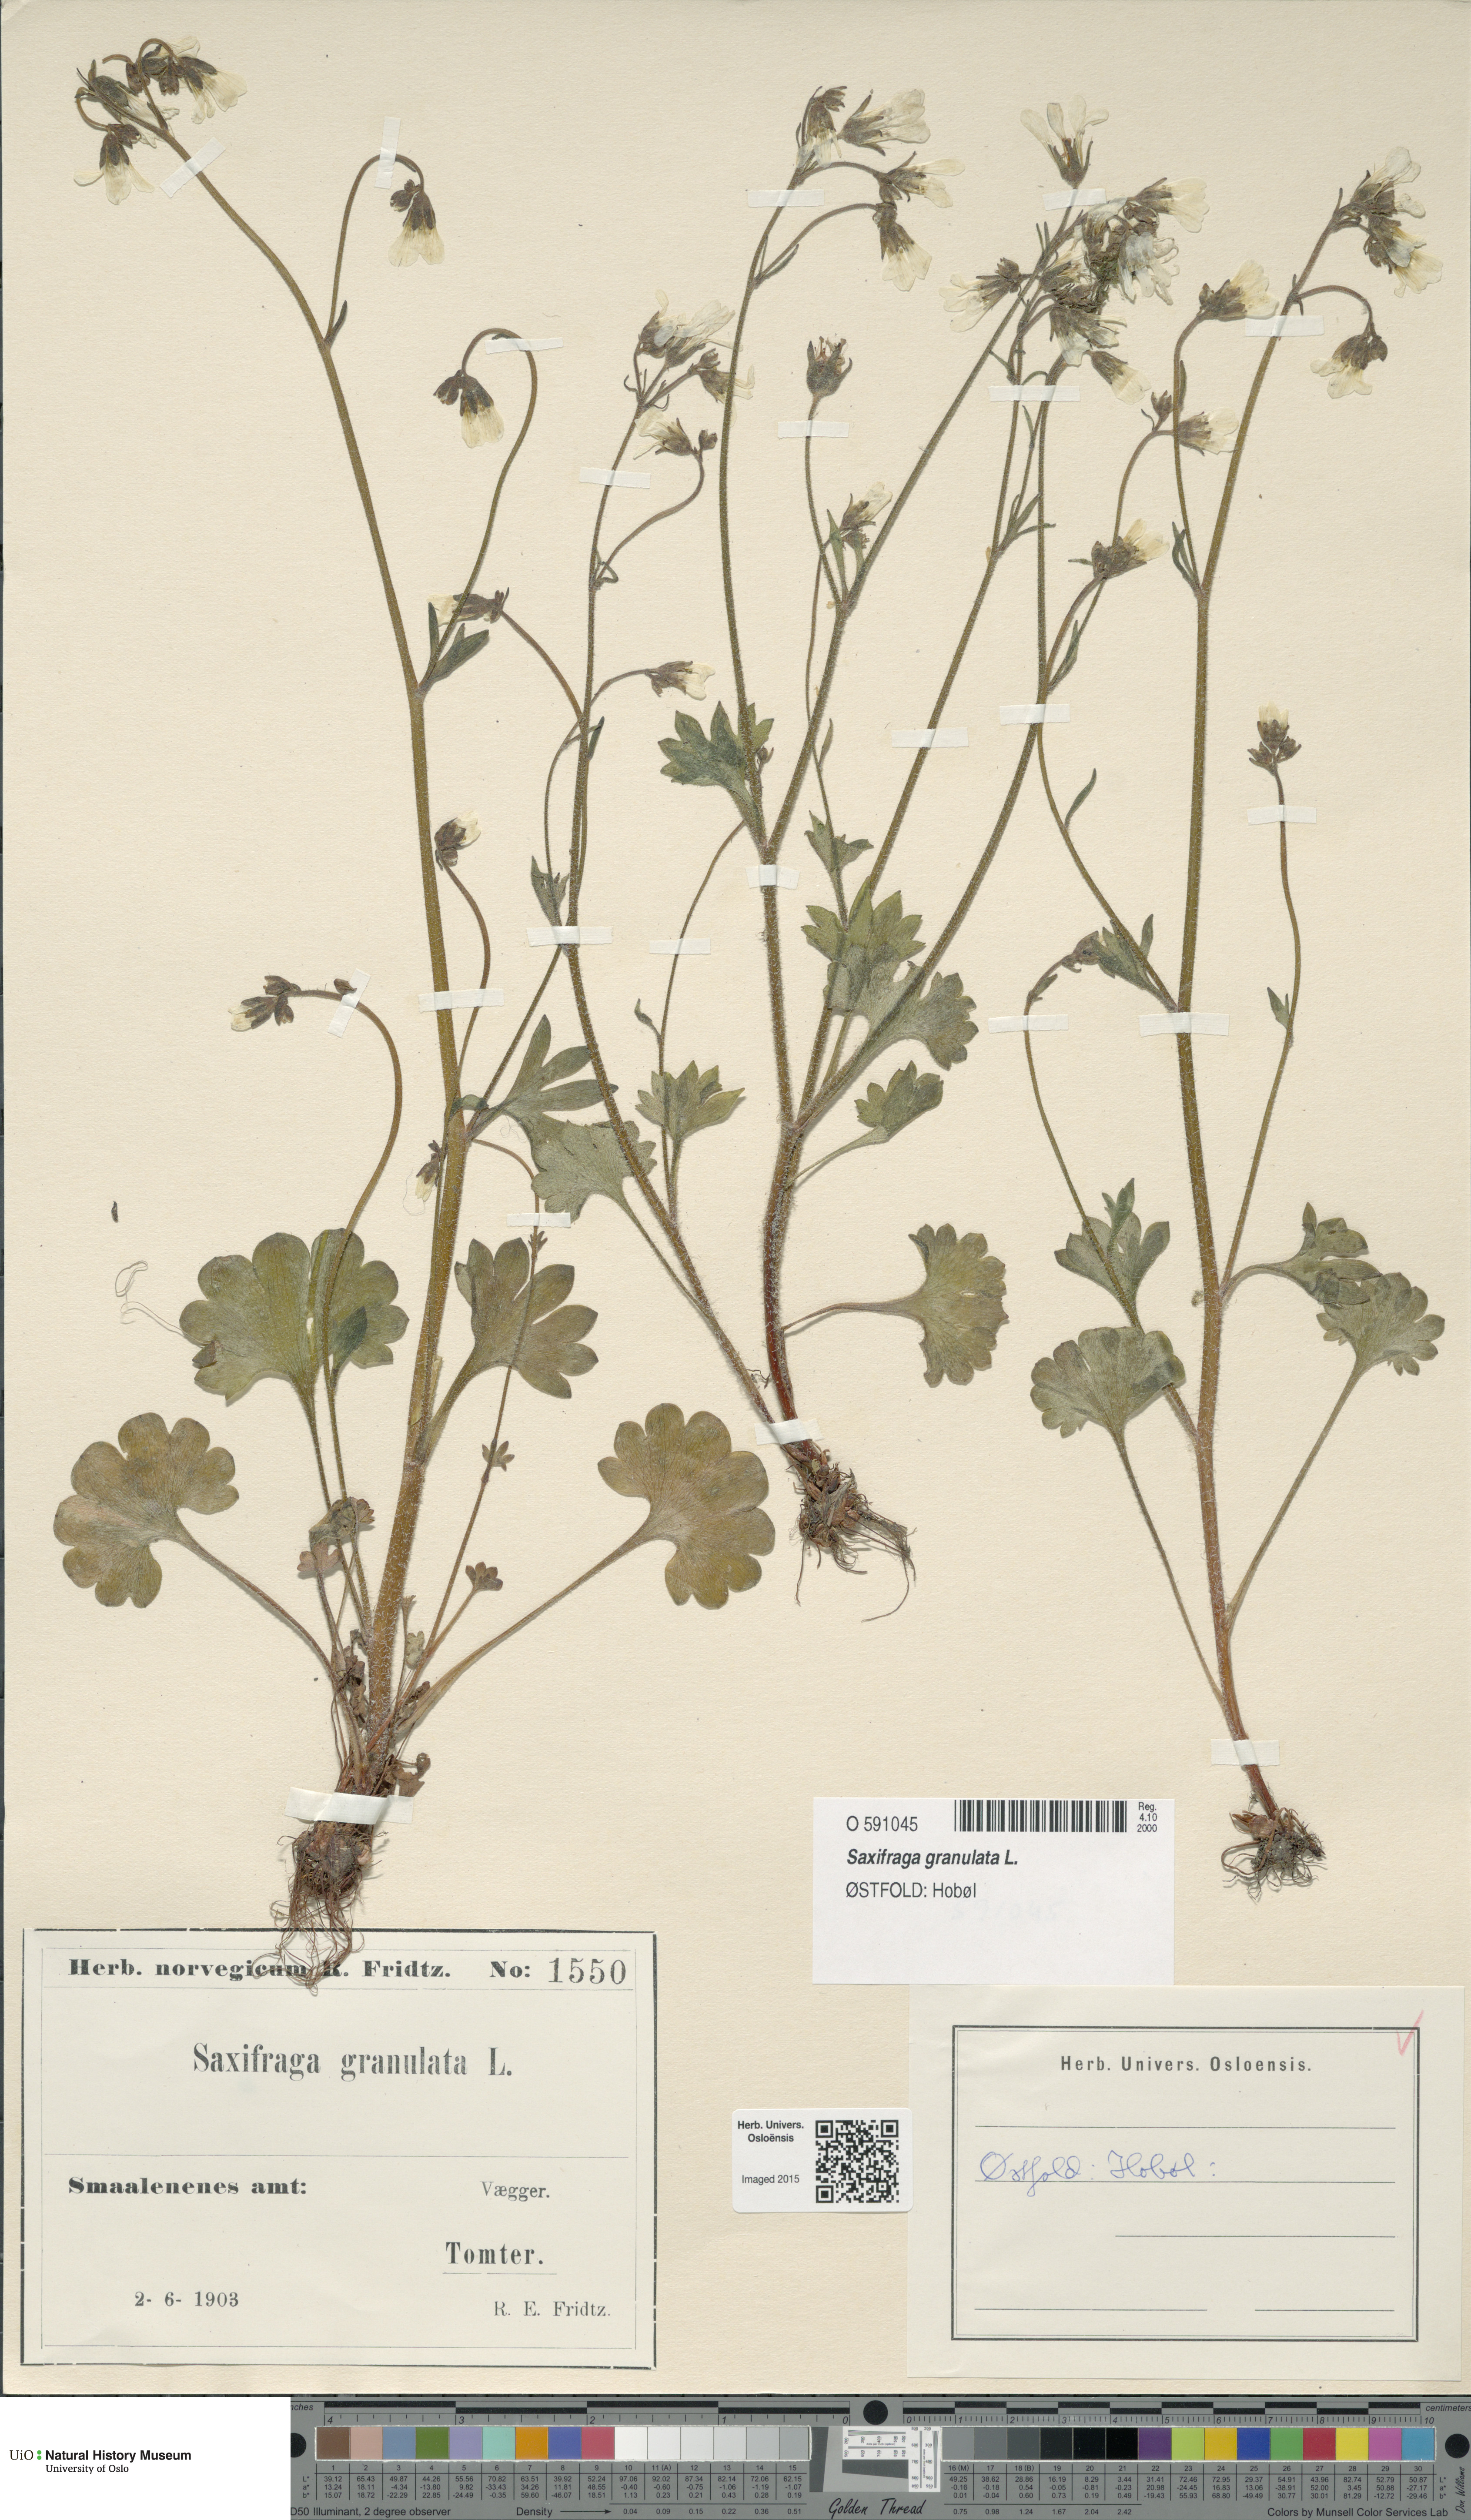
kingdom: Plantae
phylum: Tracheophyta
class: Magnoliopsida
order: Saxifragales
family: Saxifragaceae
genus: Saxifraga
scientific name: Saxifraga granulata
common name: Meadow saxifrage
